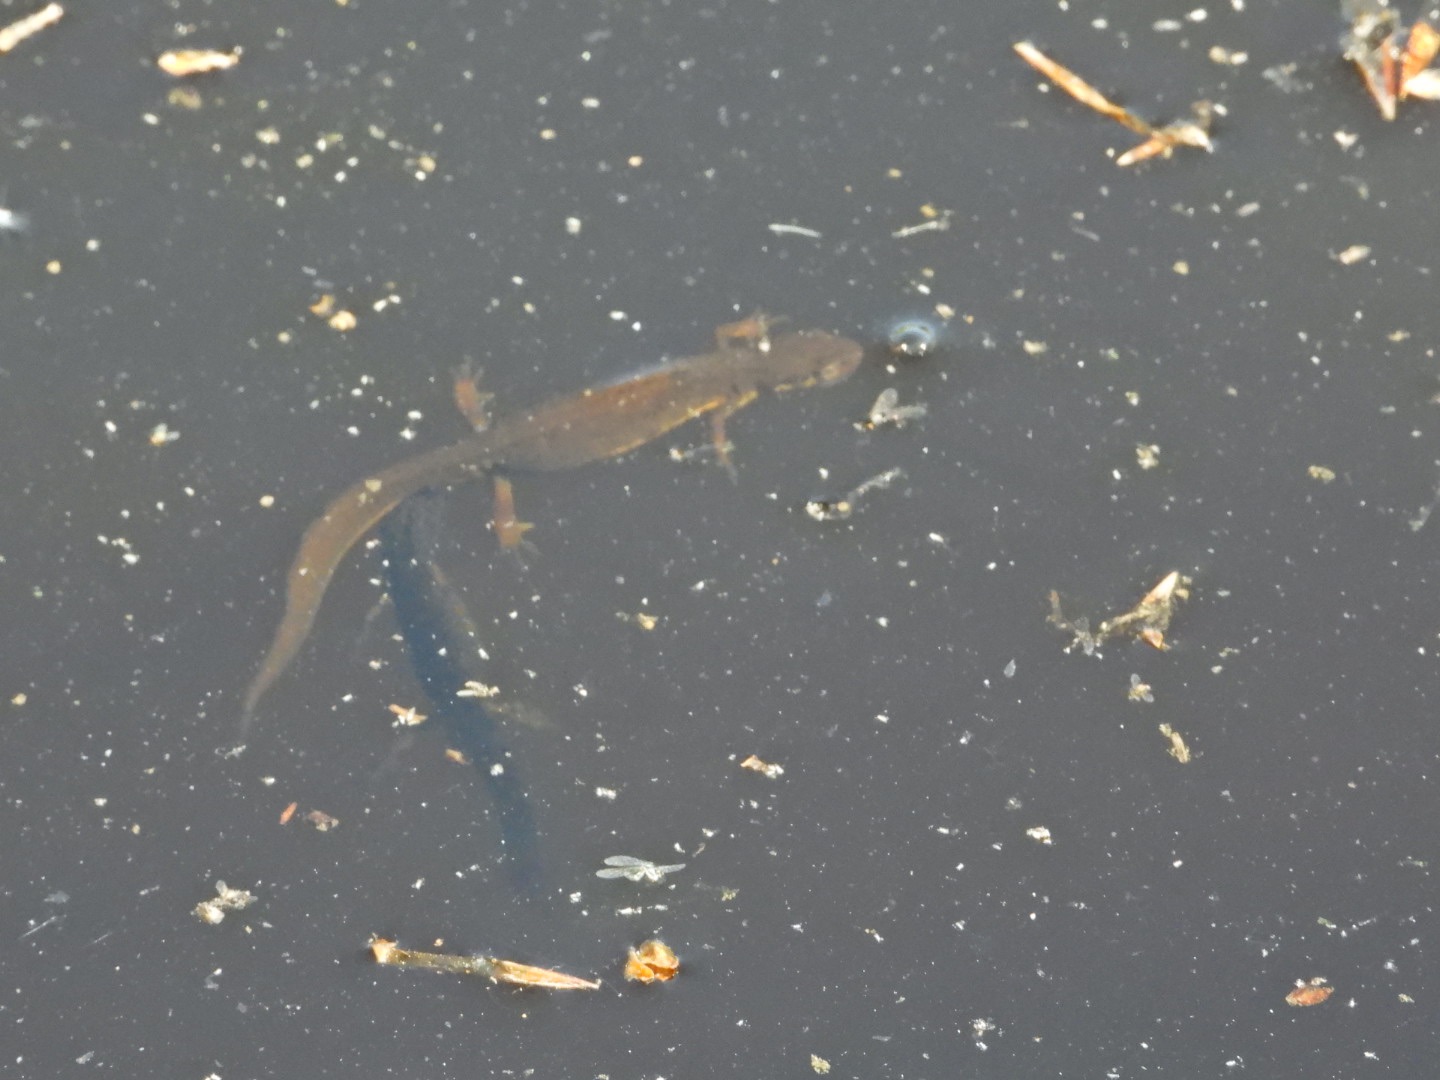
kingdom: Animalia
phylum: Chordata
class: Amphibia
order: Caudata
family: Salamandridae
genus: Lissotriton
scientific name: Lissotriton vulgaris
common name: Lille vandsalamander
